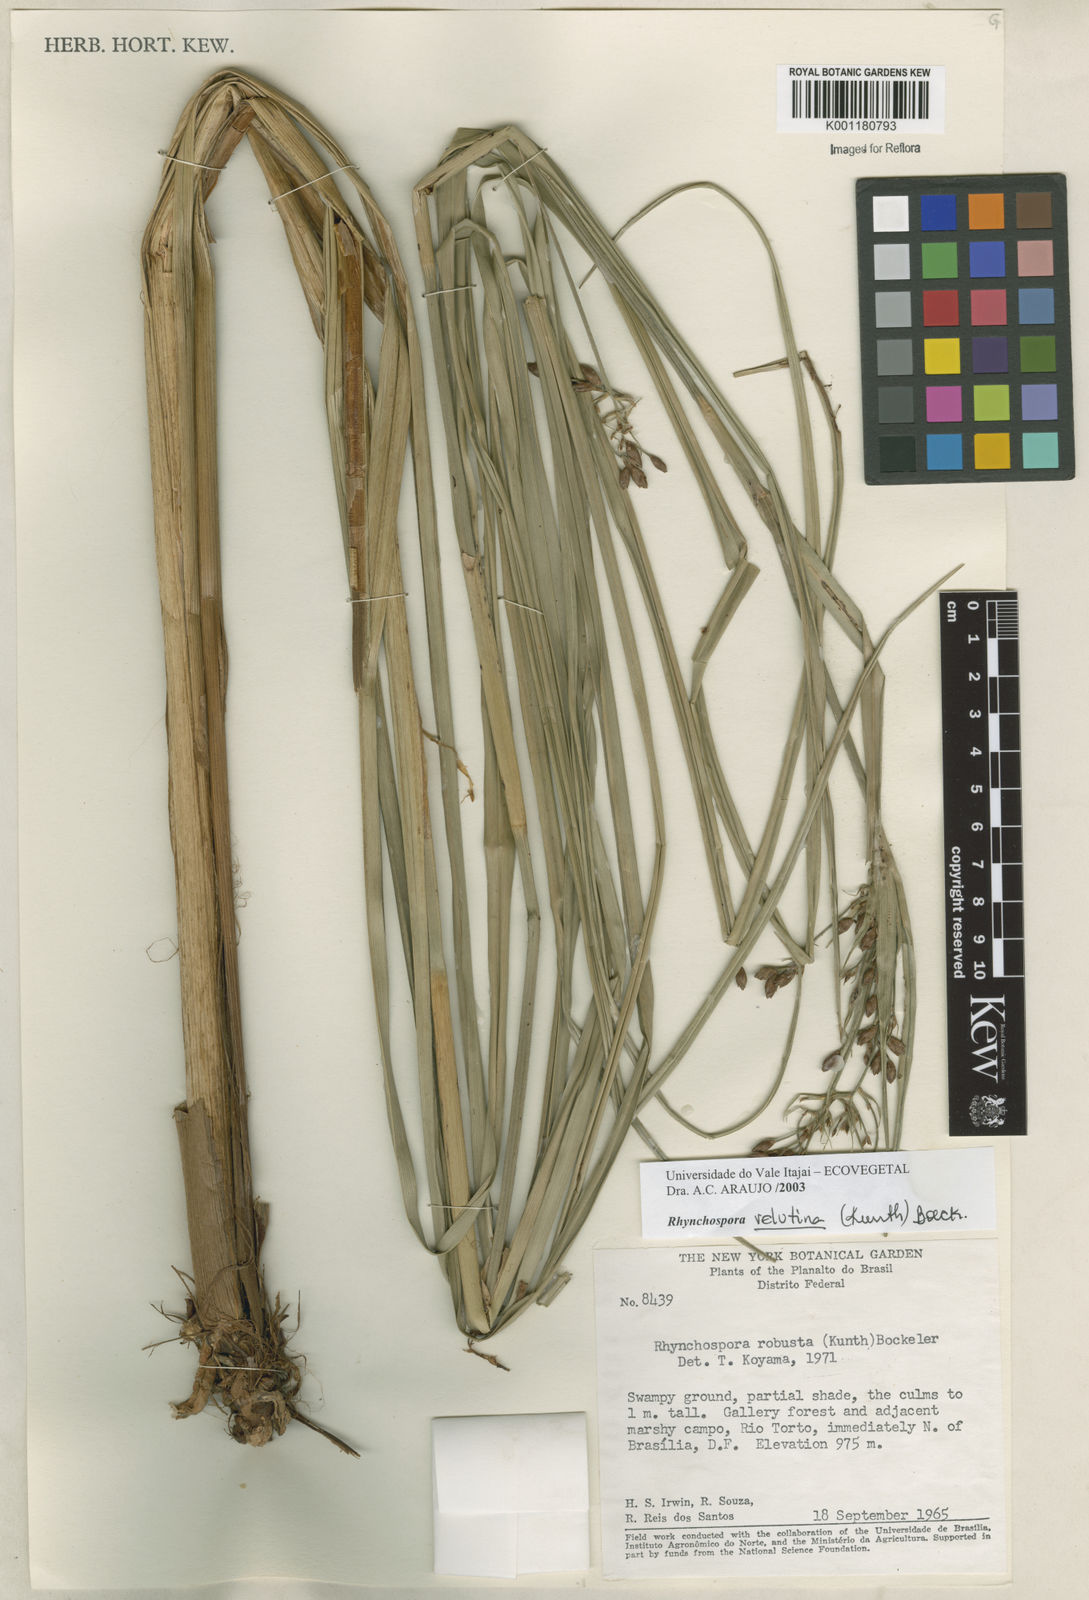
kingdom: Plantae
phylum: Tracheophyta
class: Liliopsida
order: Poales
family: Cyperaceae
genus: Rhynchospora
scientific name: Rhynchospora velutina
